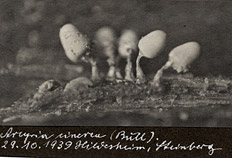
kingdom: Protozoa
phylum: Mycetozoa
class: Myxomycetes
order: Trichiales
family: Arcyriaceae
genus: Arcyria
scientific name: Arcyria cinerea
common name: White carnival candy slime mold
